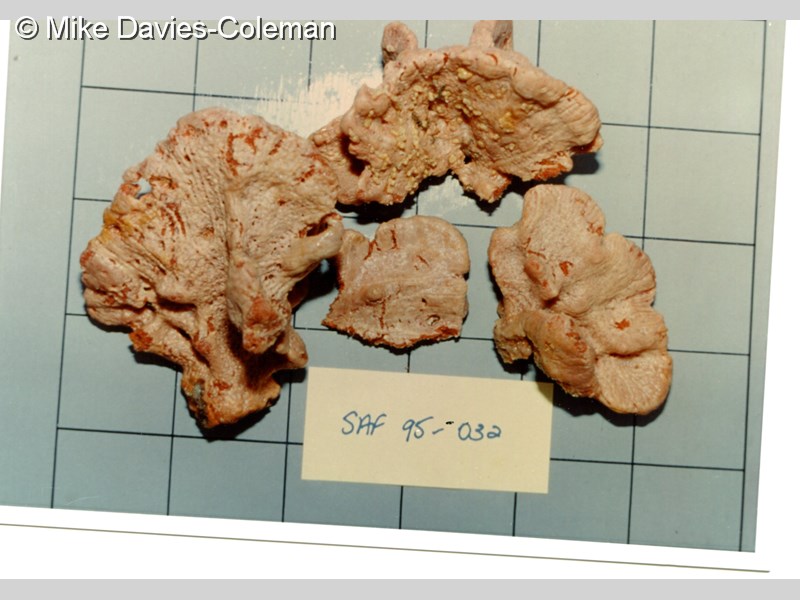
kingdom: Animalia
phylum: Porifera
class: Demospongiae
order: Poecilosclerida
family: Microcionidae
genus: Clathria
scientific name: Clathria oxitoxa
